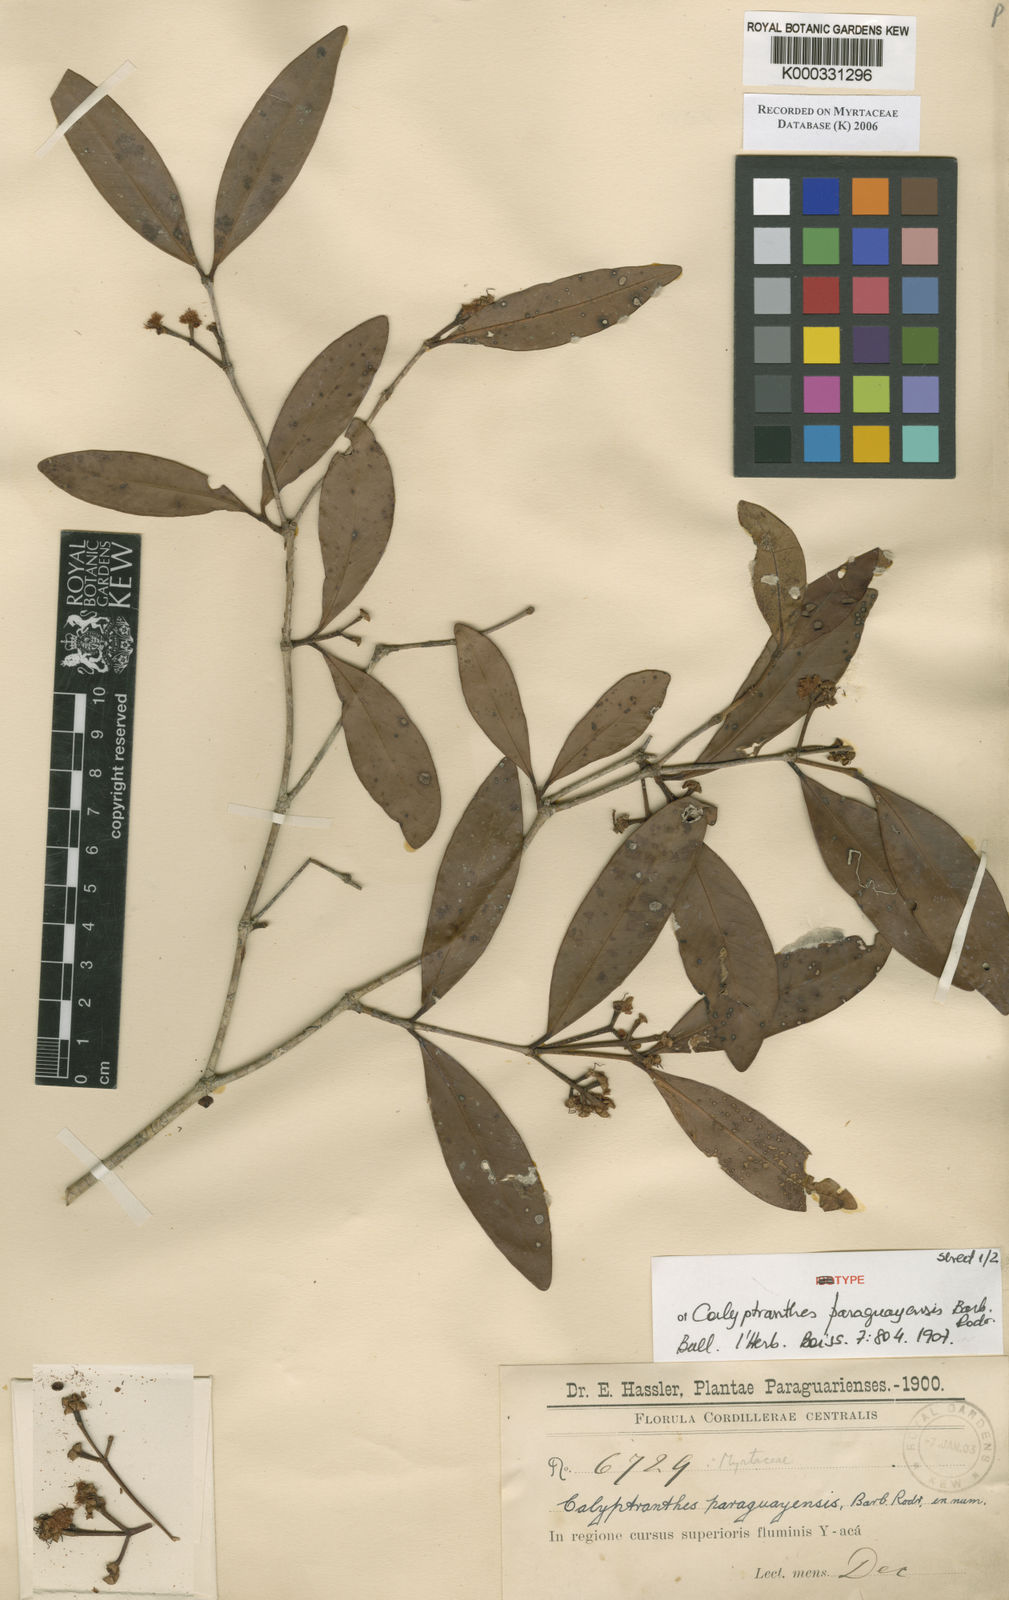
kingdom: Plantae
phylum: Tracheophyta
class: Magnoliopsida
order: Myrtales
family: Myrtaceae
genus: Calyptranthes
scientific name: Calyptranthes
